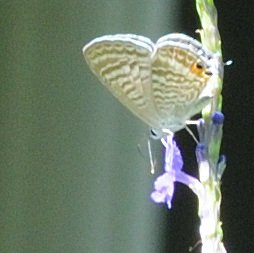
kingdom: Animalia
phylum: Arthropoda
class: Insecta
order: Lepidoptera
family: Lycaenidae
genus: Lampides
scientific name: Lampides boeticus
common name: Pea Blue
